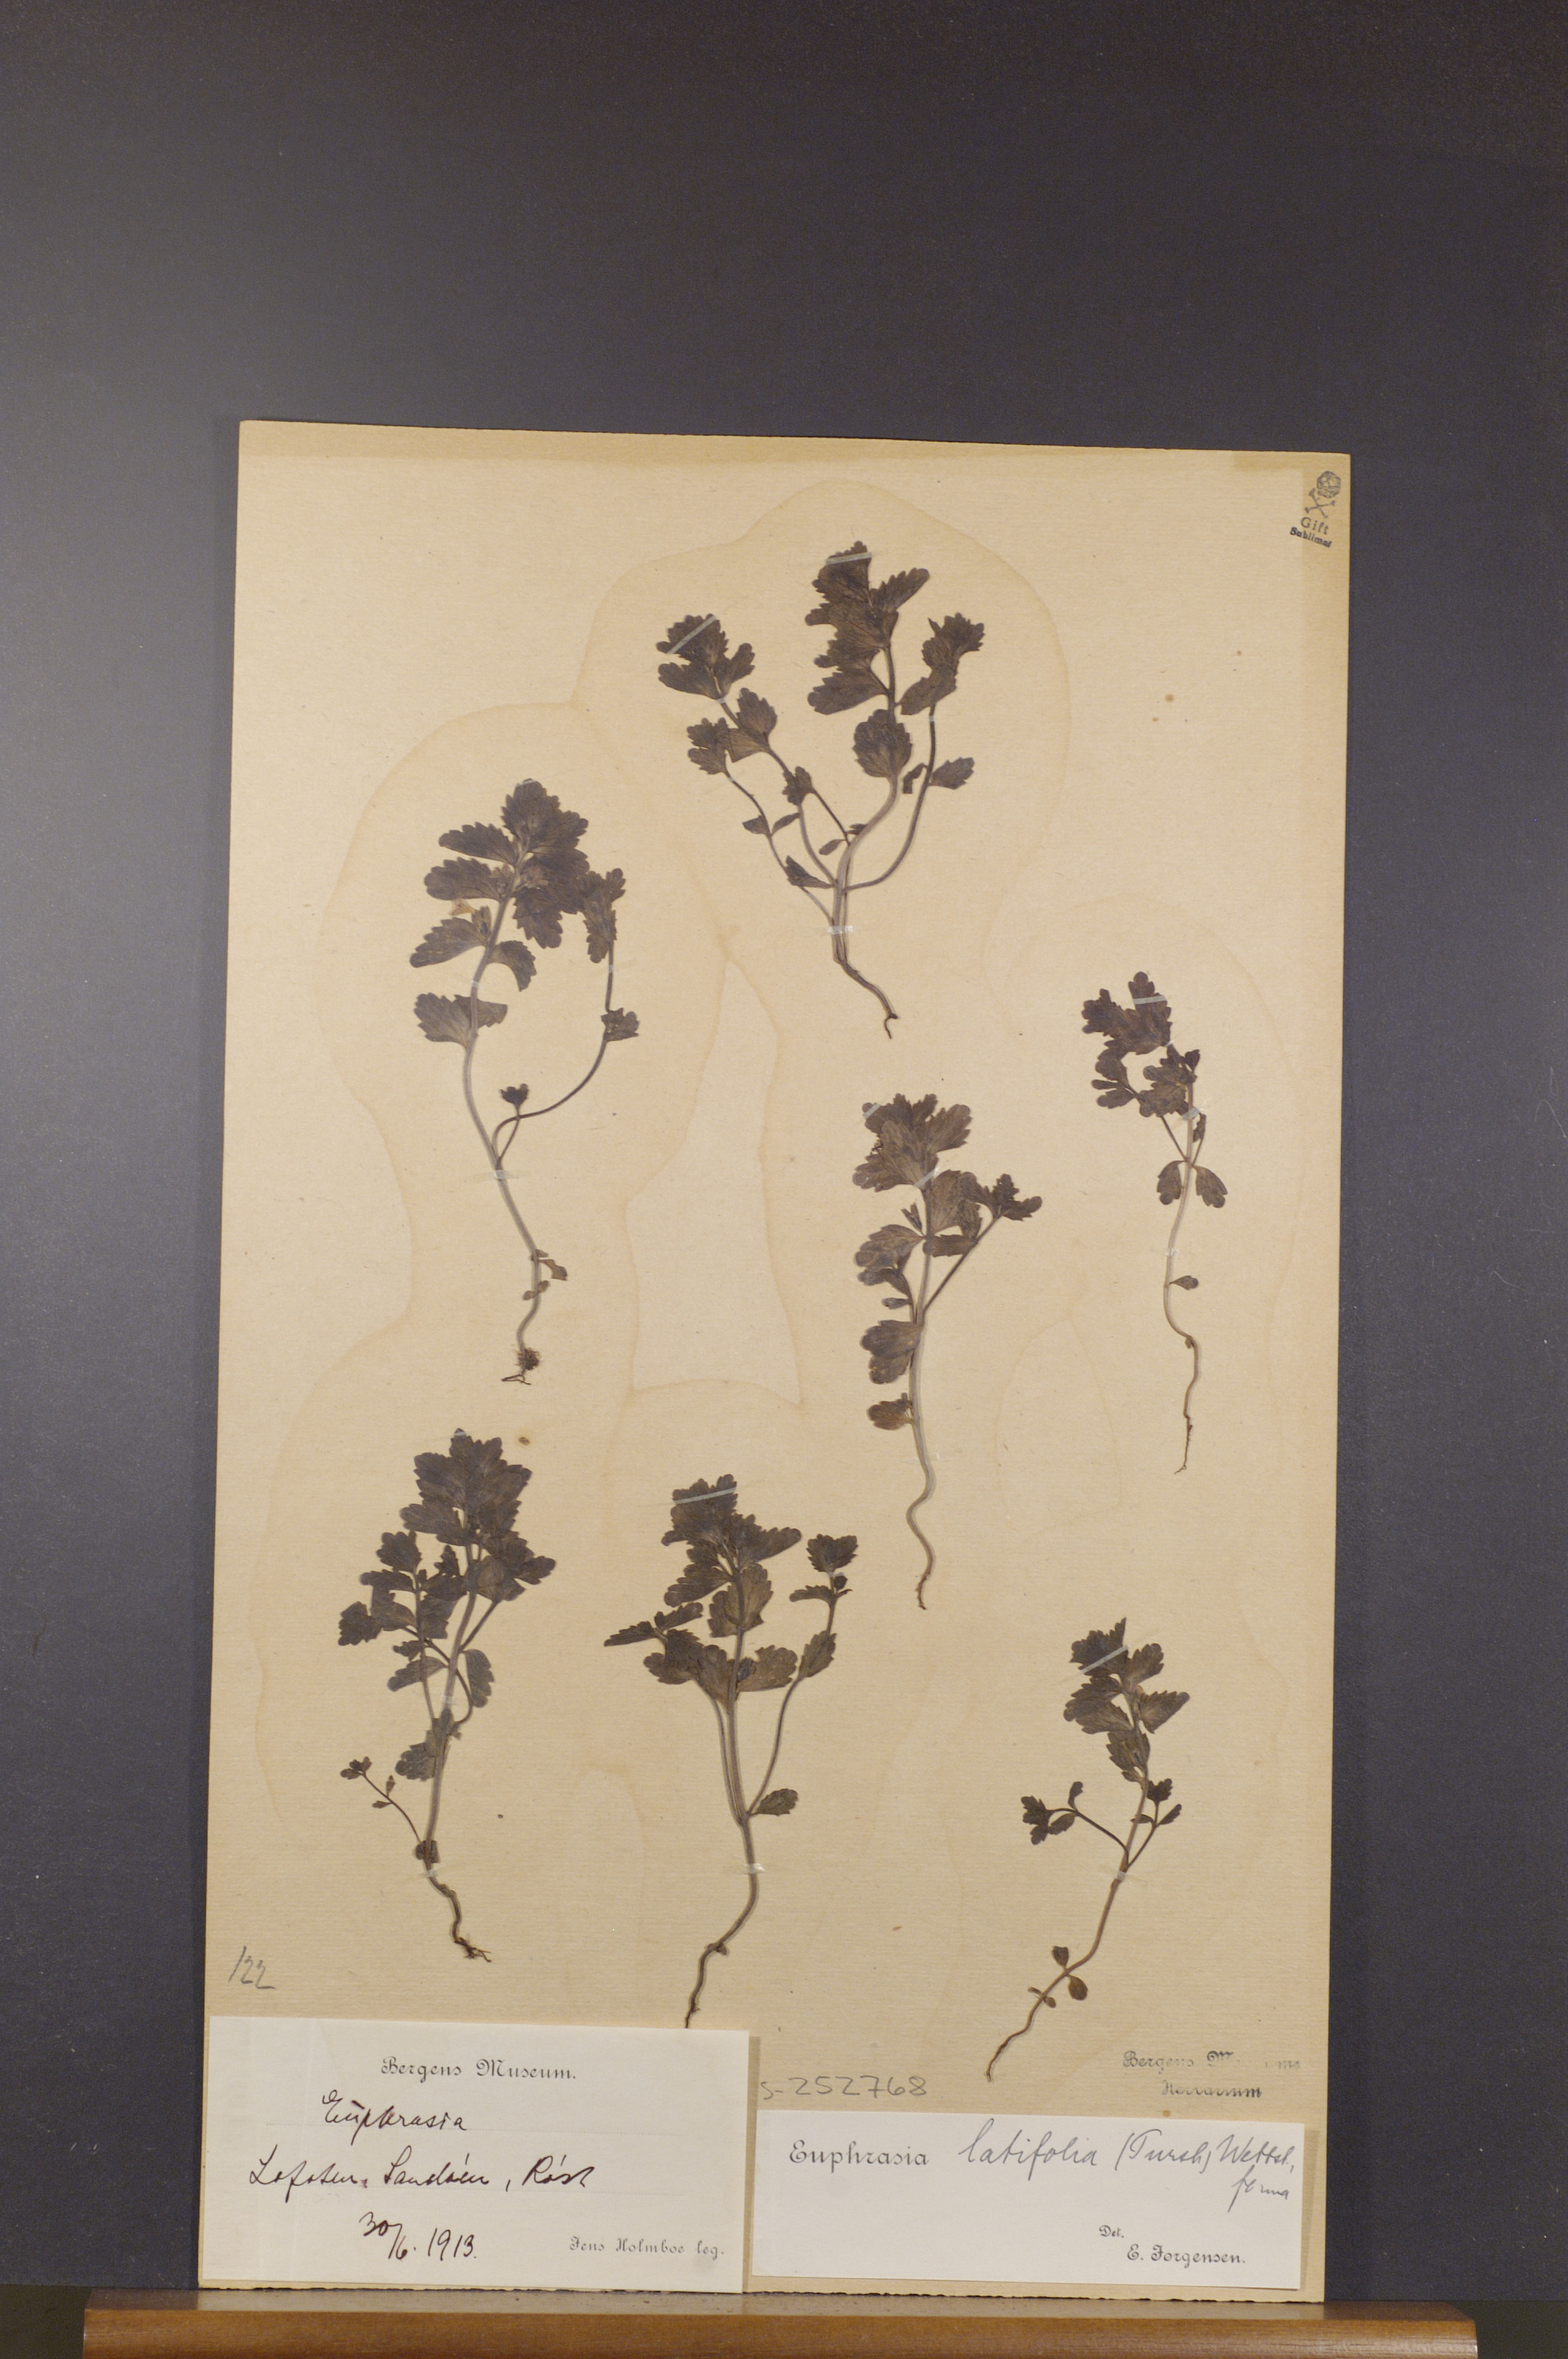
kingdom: Plantae
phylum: Tracheophyta
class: Magnoliopsida
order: Lamiales
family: Orobanchaceae
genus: Euphrasia
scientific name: Euphrasia wettsteinii
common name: Wettstein's eyebright
